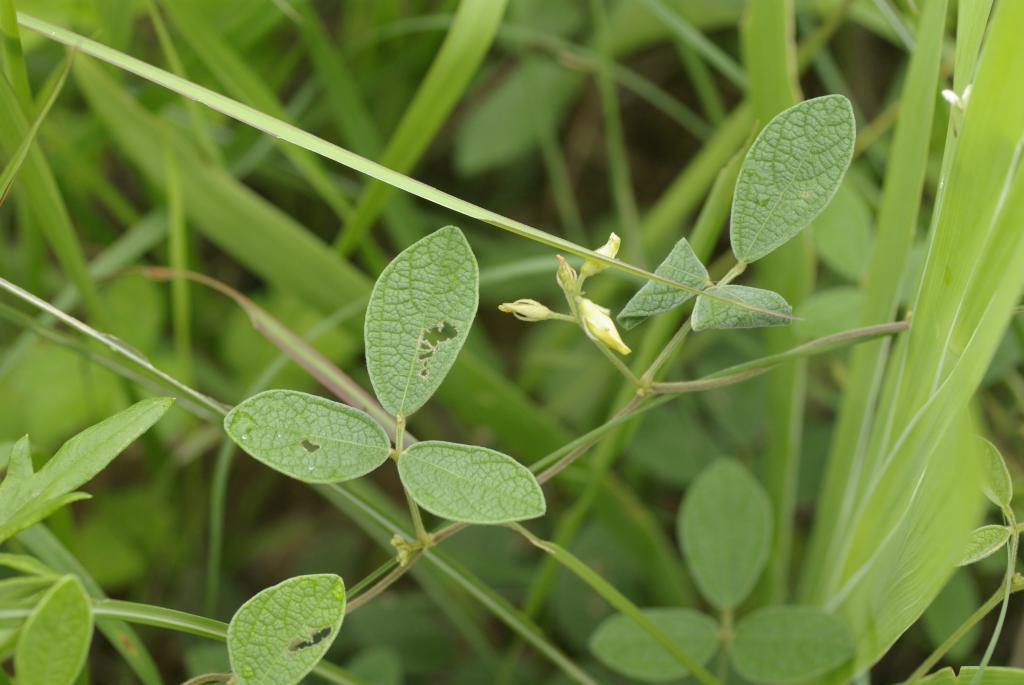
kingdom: Plantae
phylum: Tracheophyta
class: Magnoliopsida
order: Fabales
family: Fabaceae
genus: Cajanus
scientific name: Cajanus scarabaeoides
